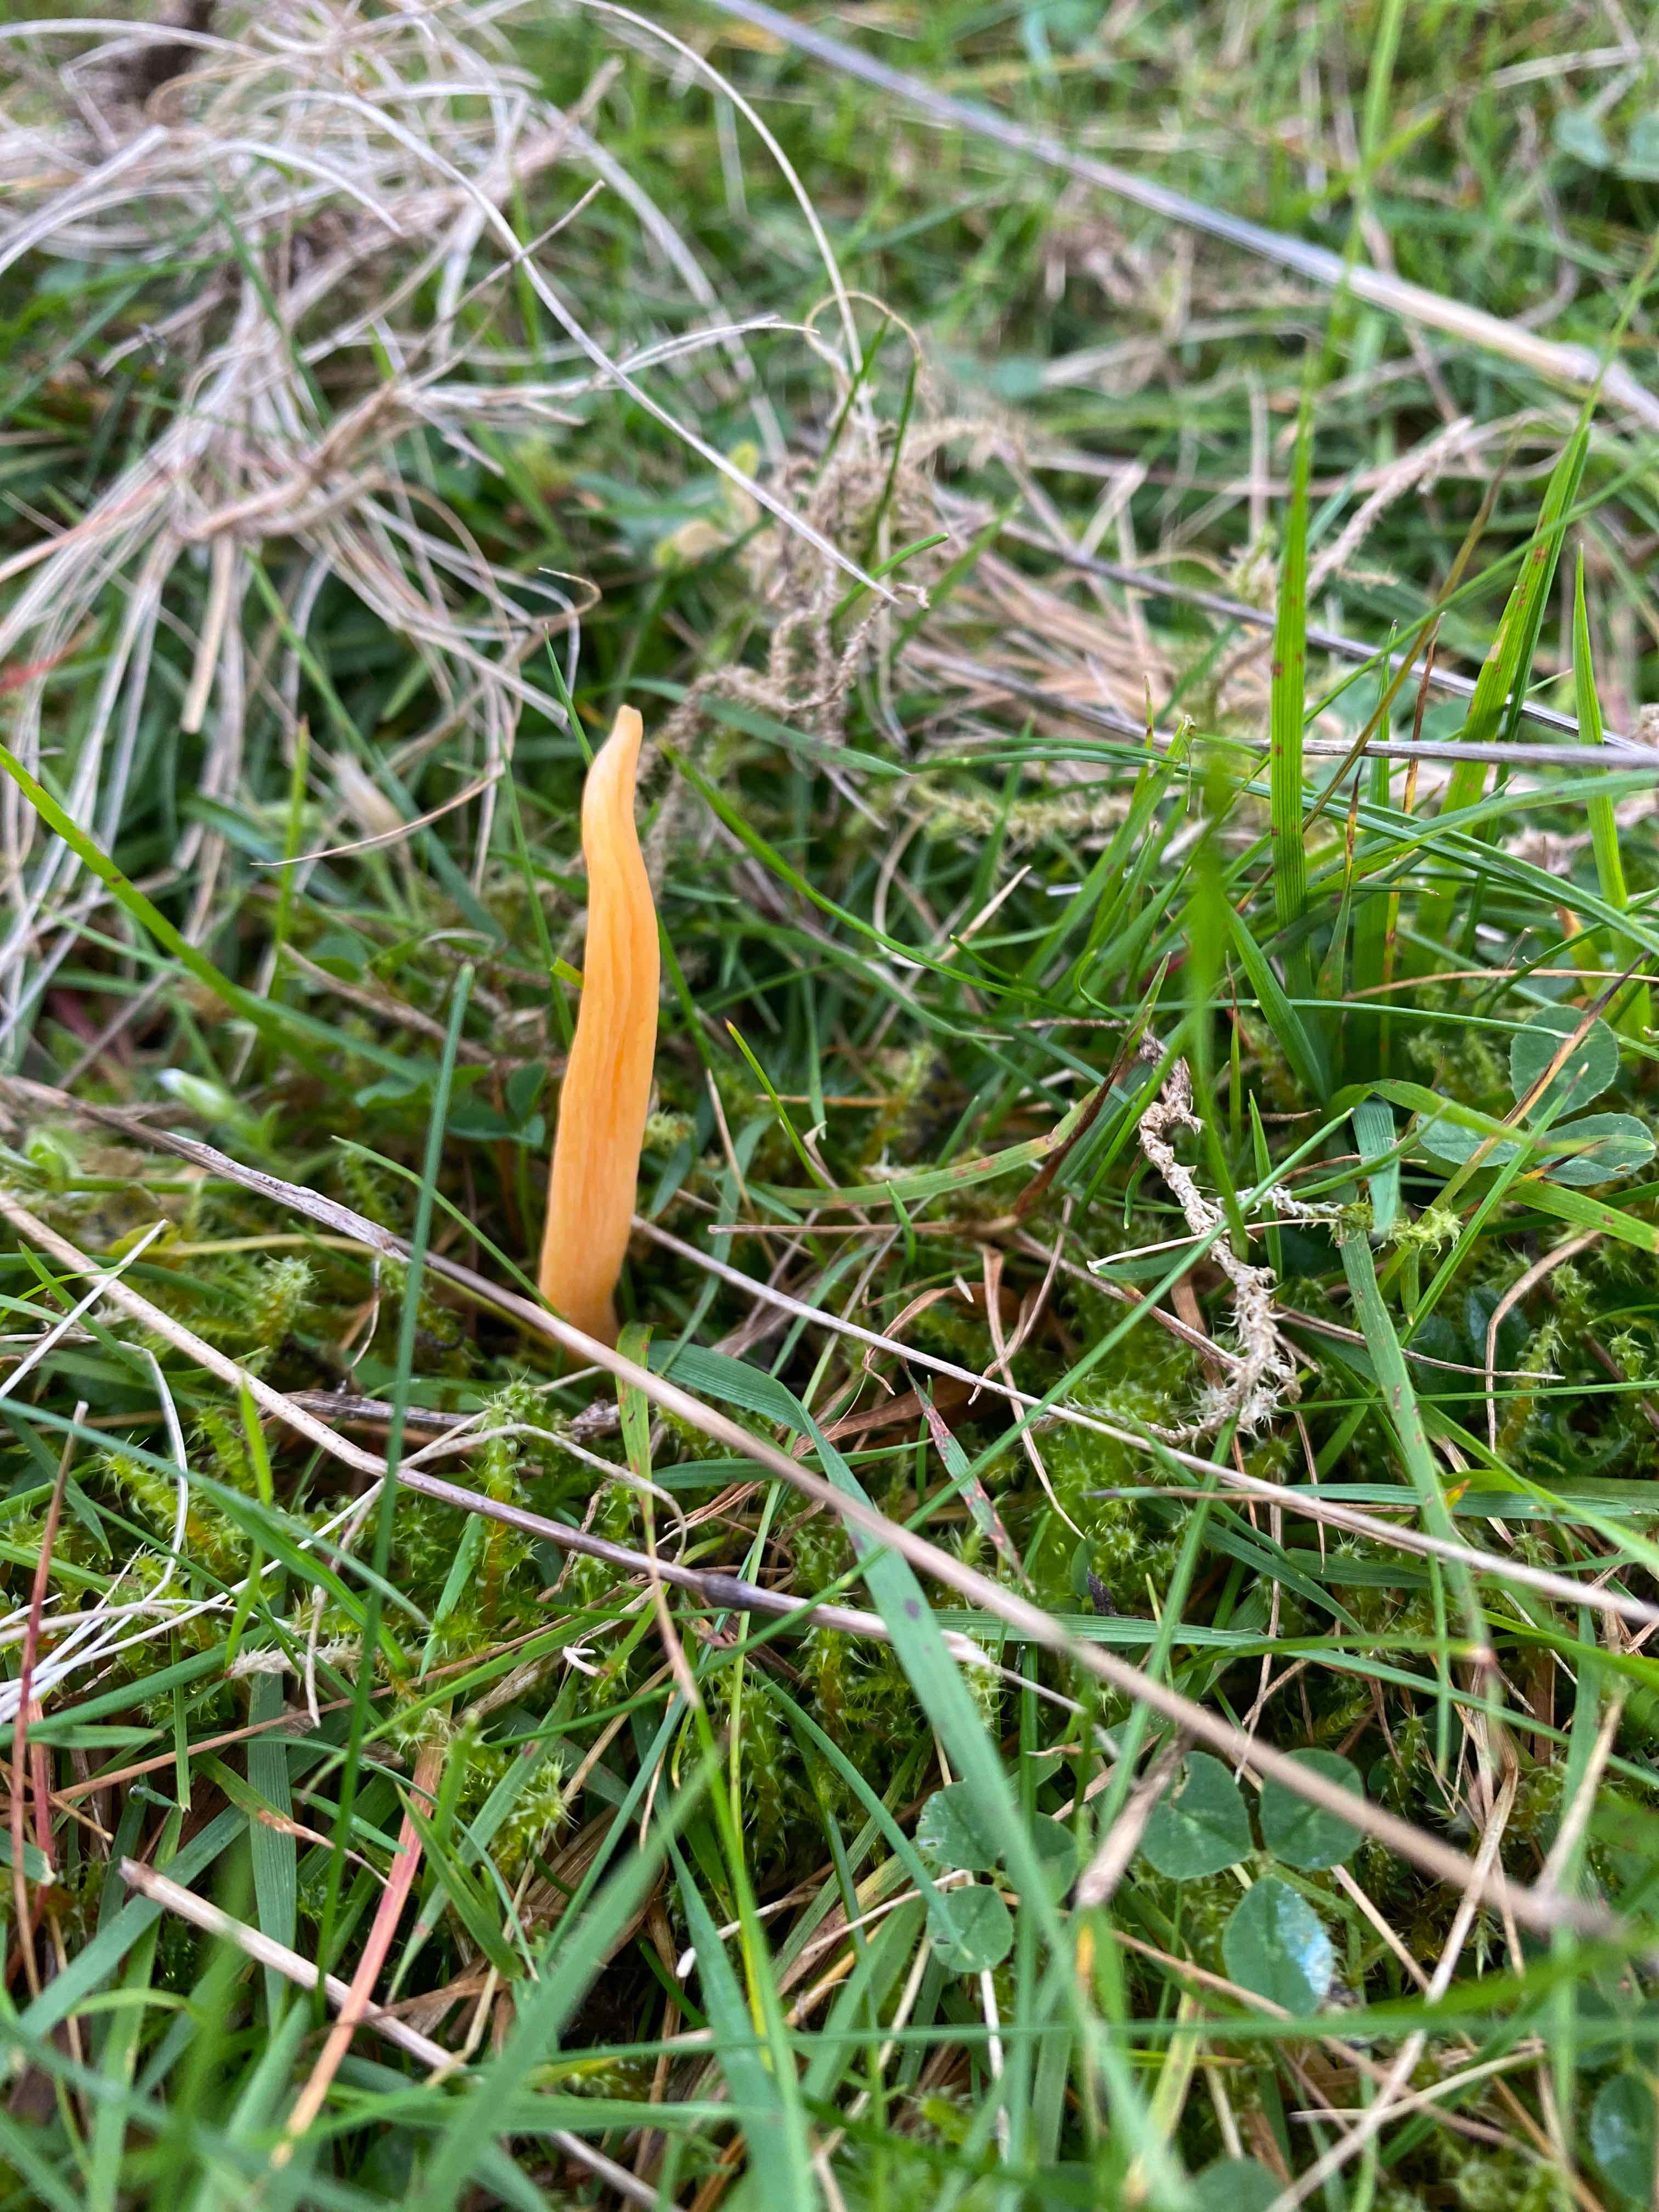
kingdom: Fungi
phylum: Basidiomycota
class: Agaricomycetes
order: Agaricales
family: Clavariaceae
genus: Clavulinopsis
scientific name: Clavulinopsis
